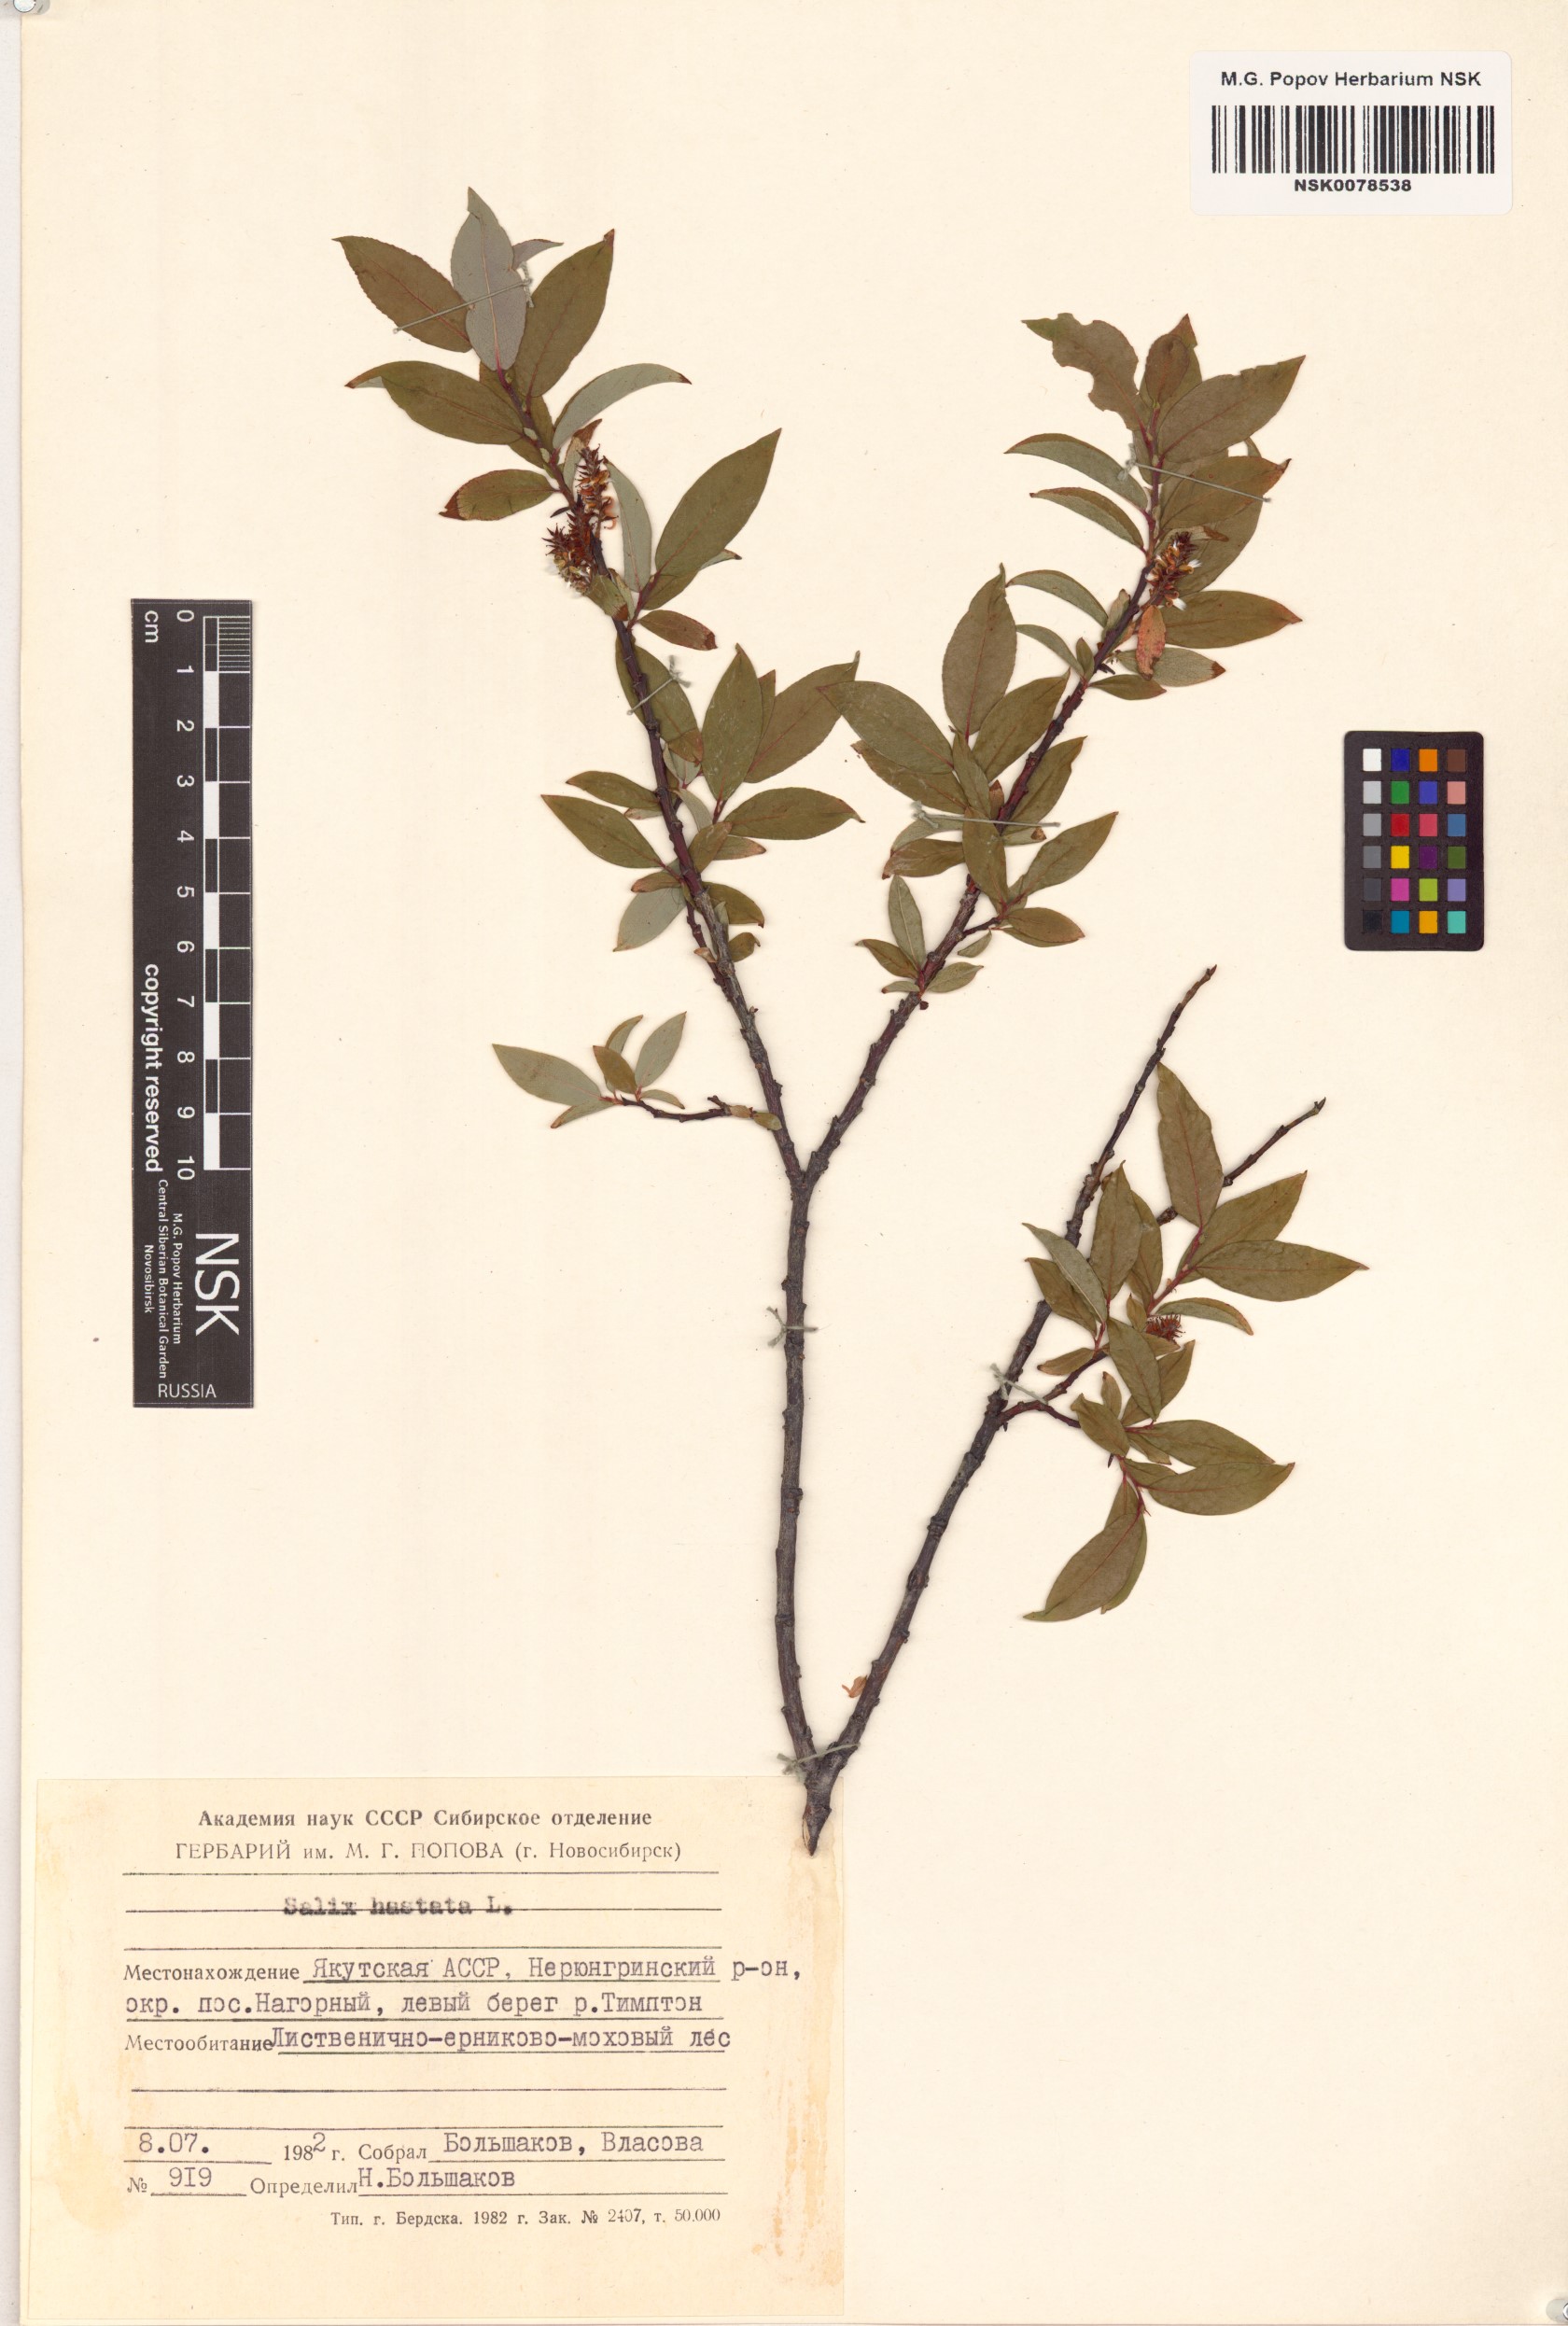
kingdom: Plantae
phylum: Tracheophyta
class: Magnoliopsida
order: Malpighiales
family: Salicaceae
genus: Salix
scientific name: Salix hastata
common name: Halberd willow
